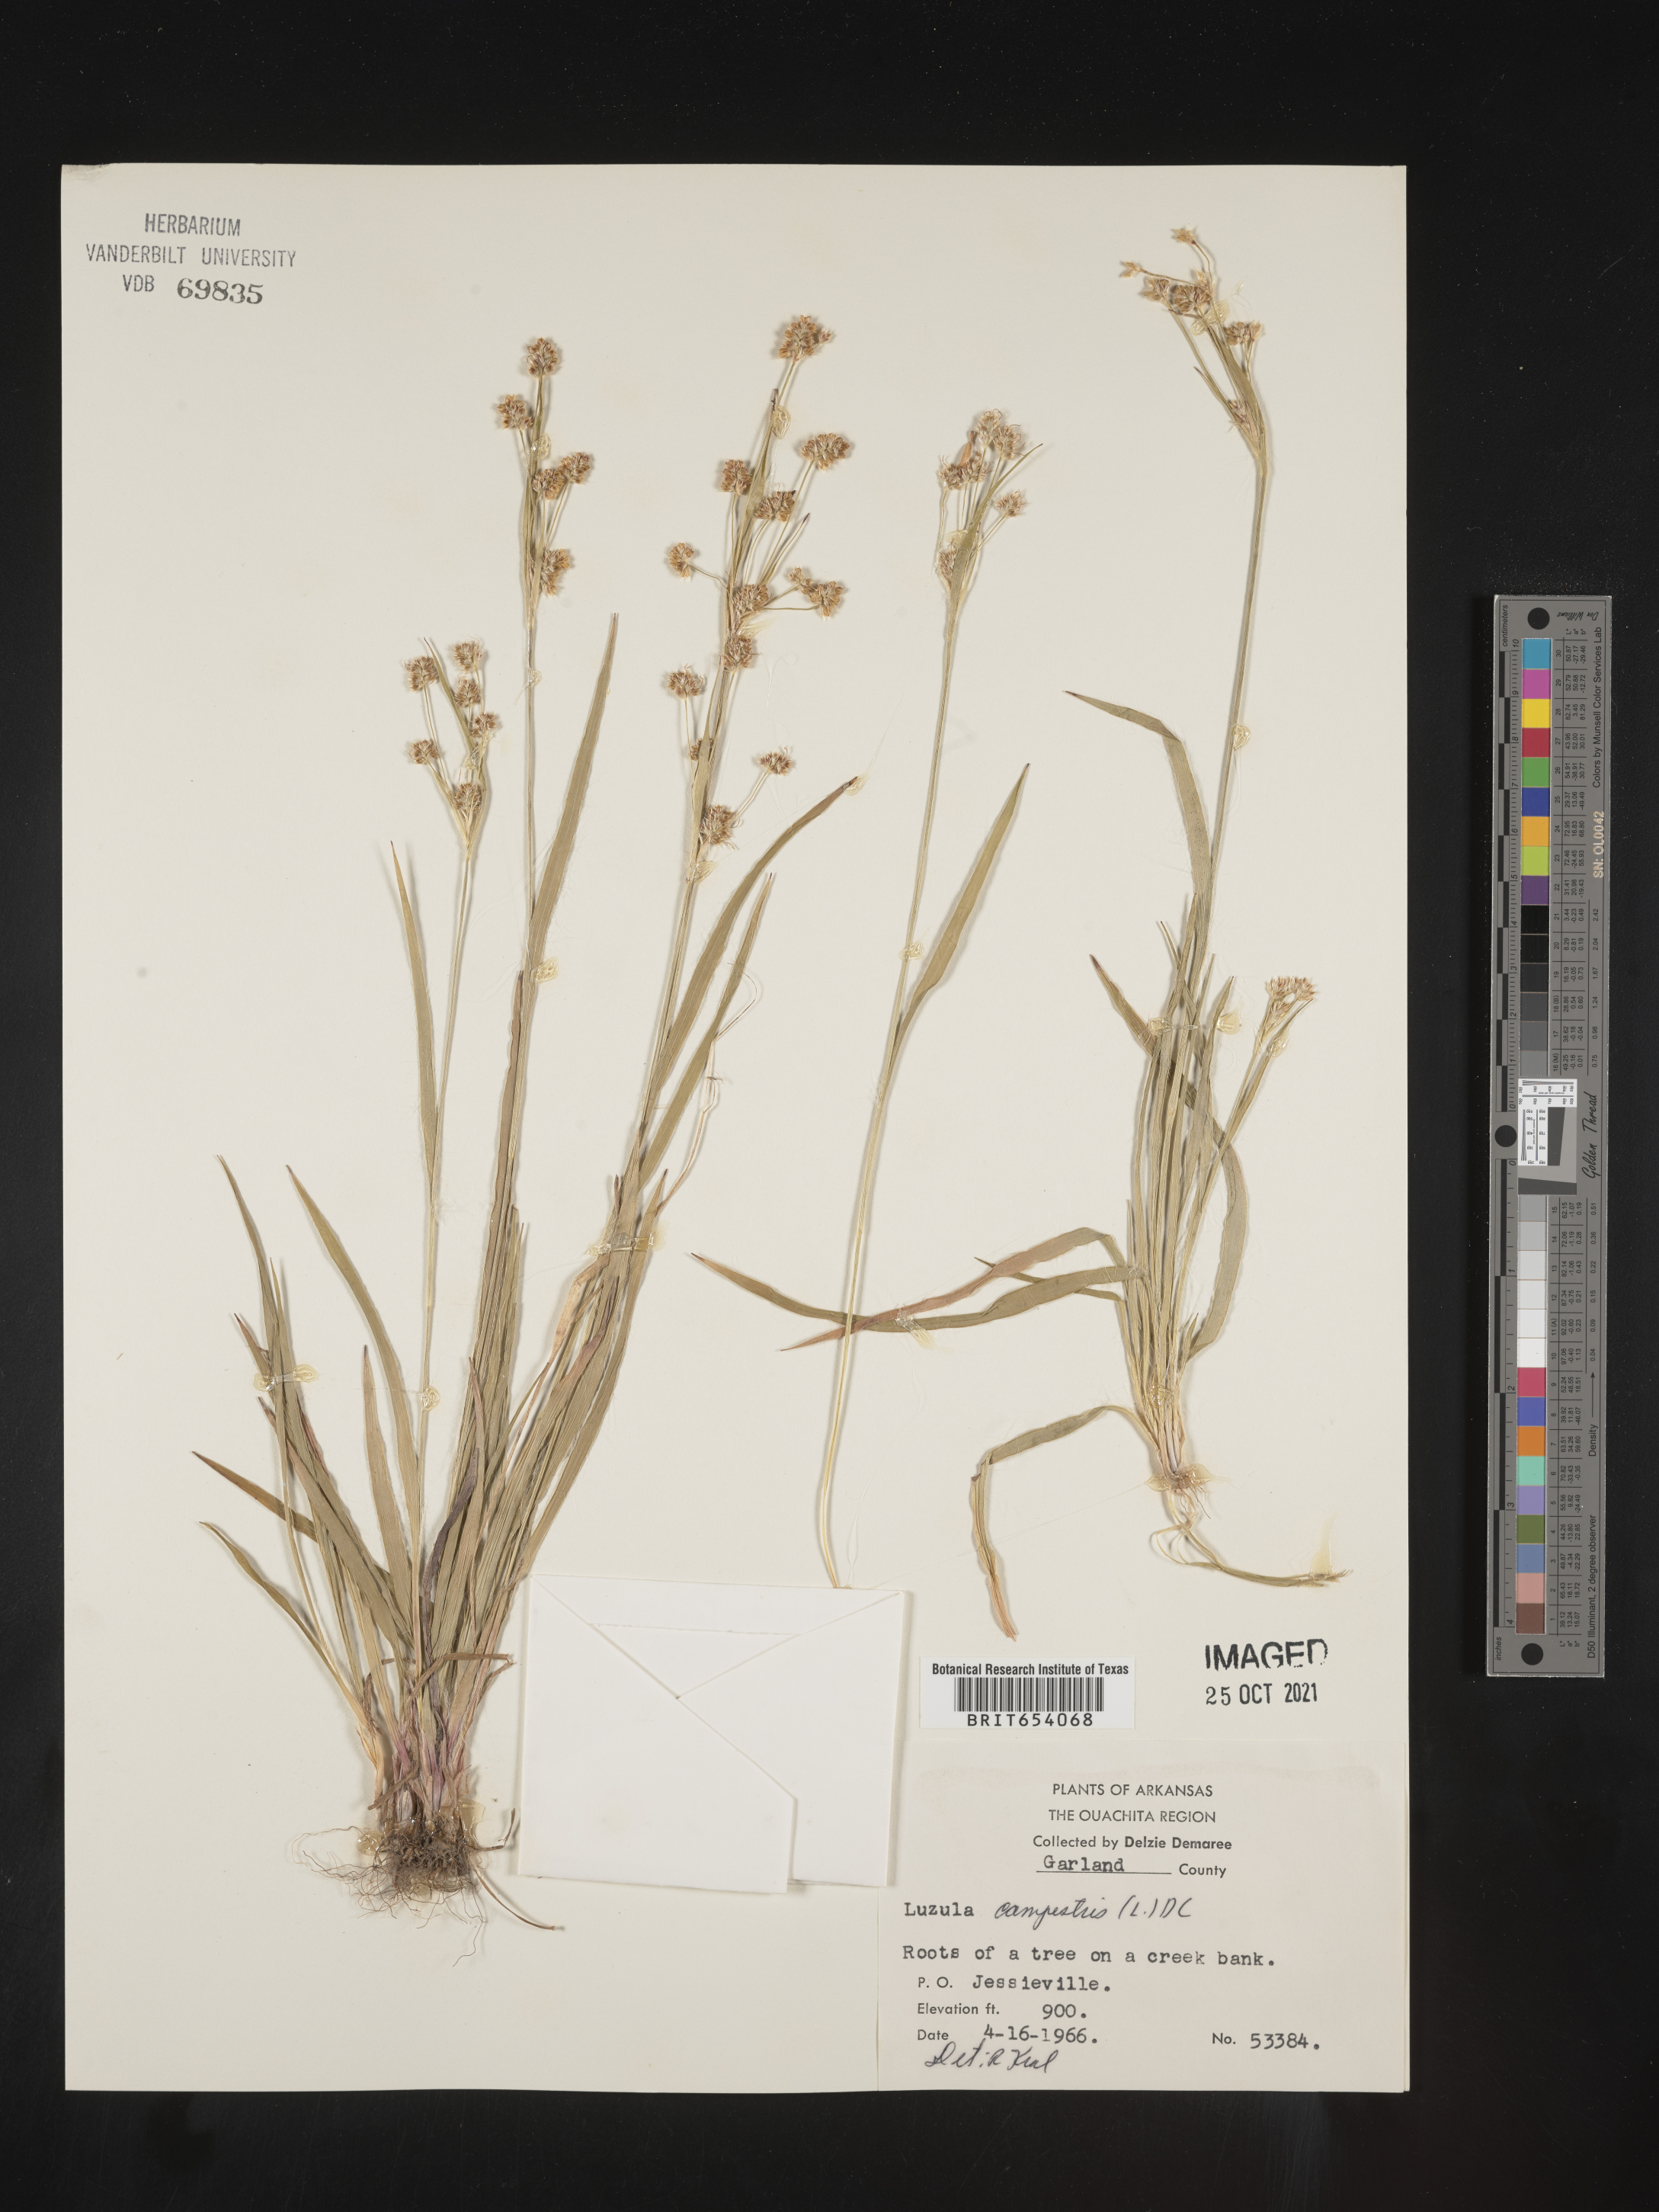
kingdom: Plantae
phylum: Tracheophyta
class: Liliopsida
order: Poales
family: Juncaceae
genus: Luzula
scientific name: Luzula campestris
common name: Field wood-rush
